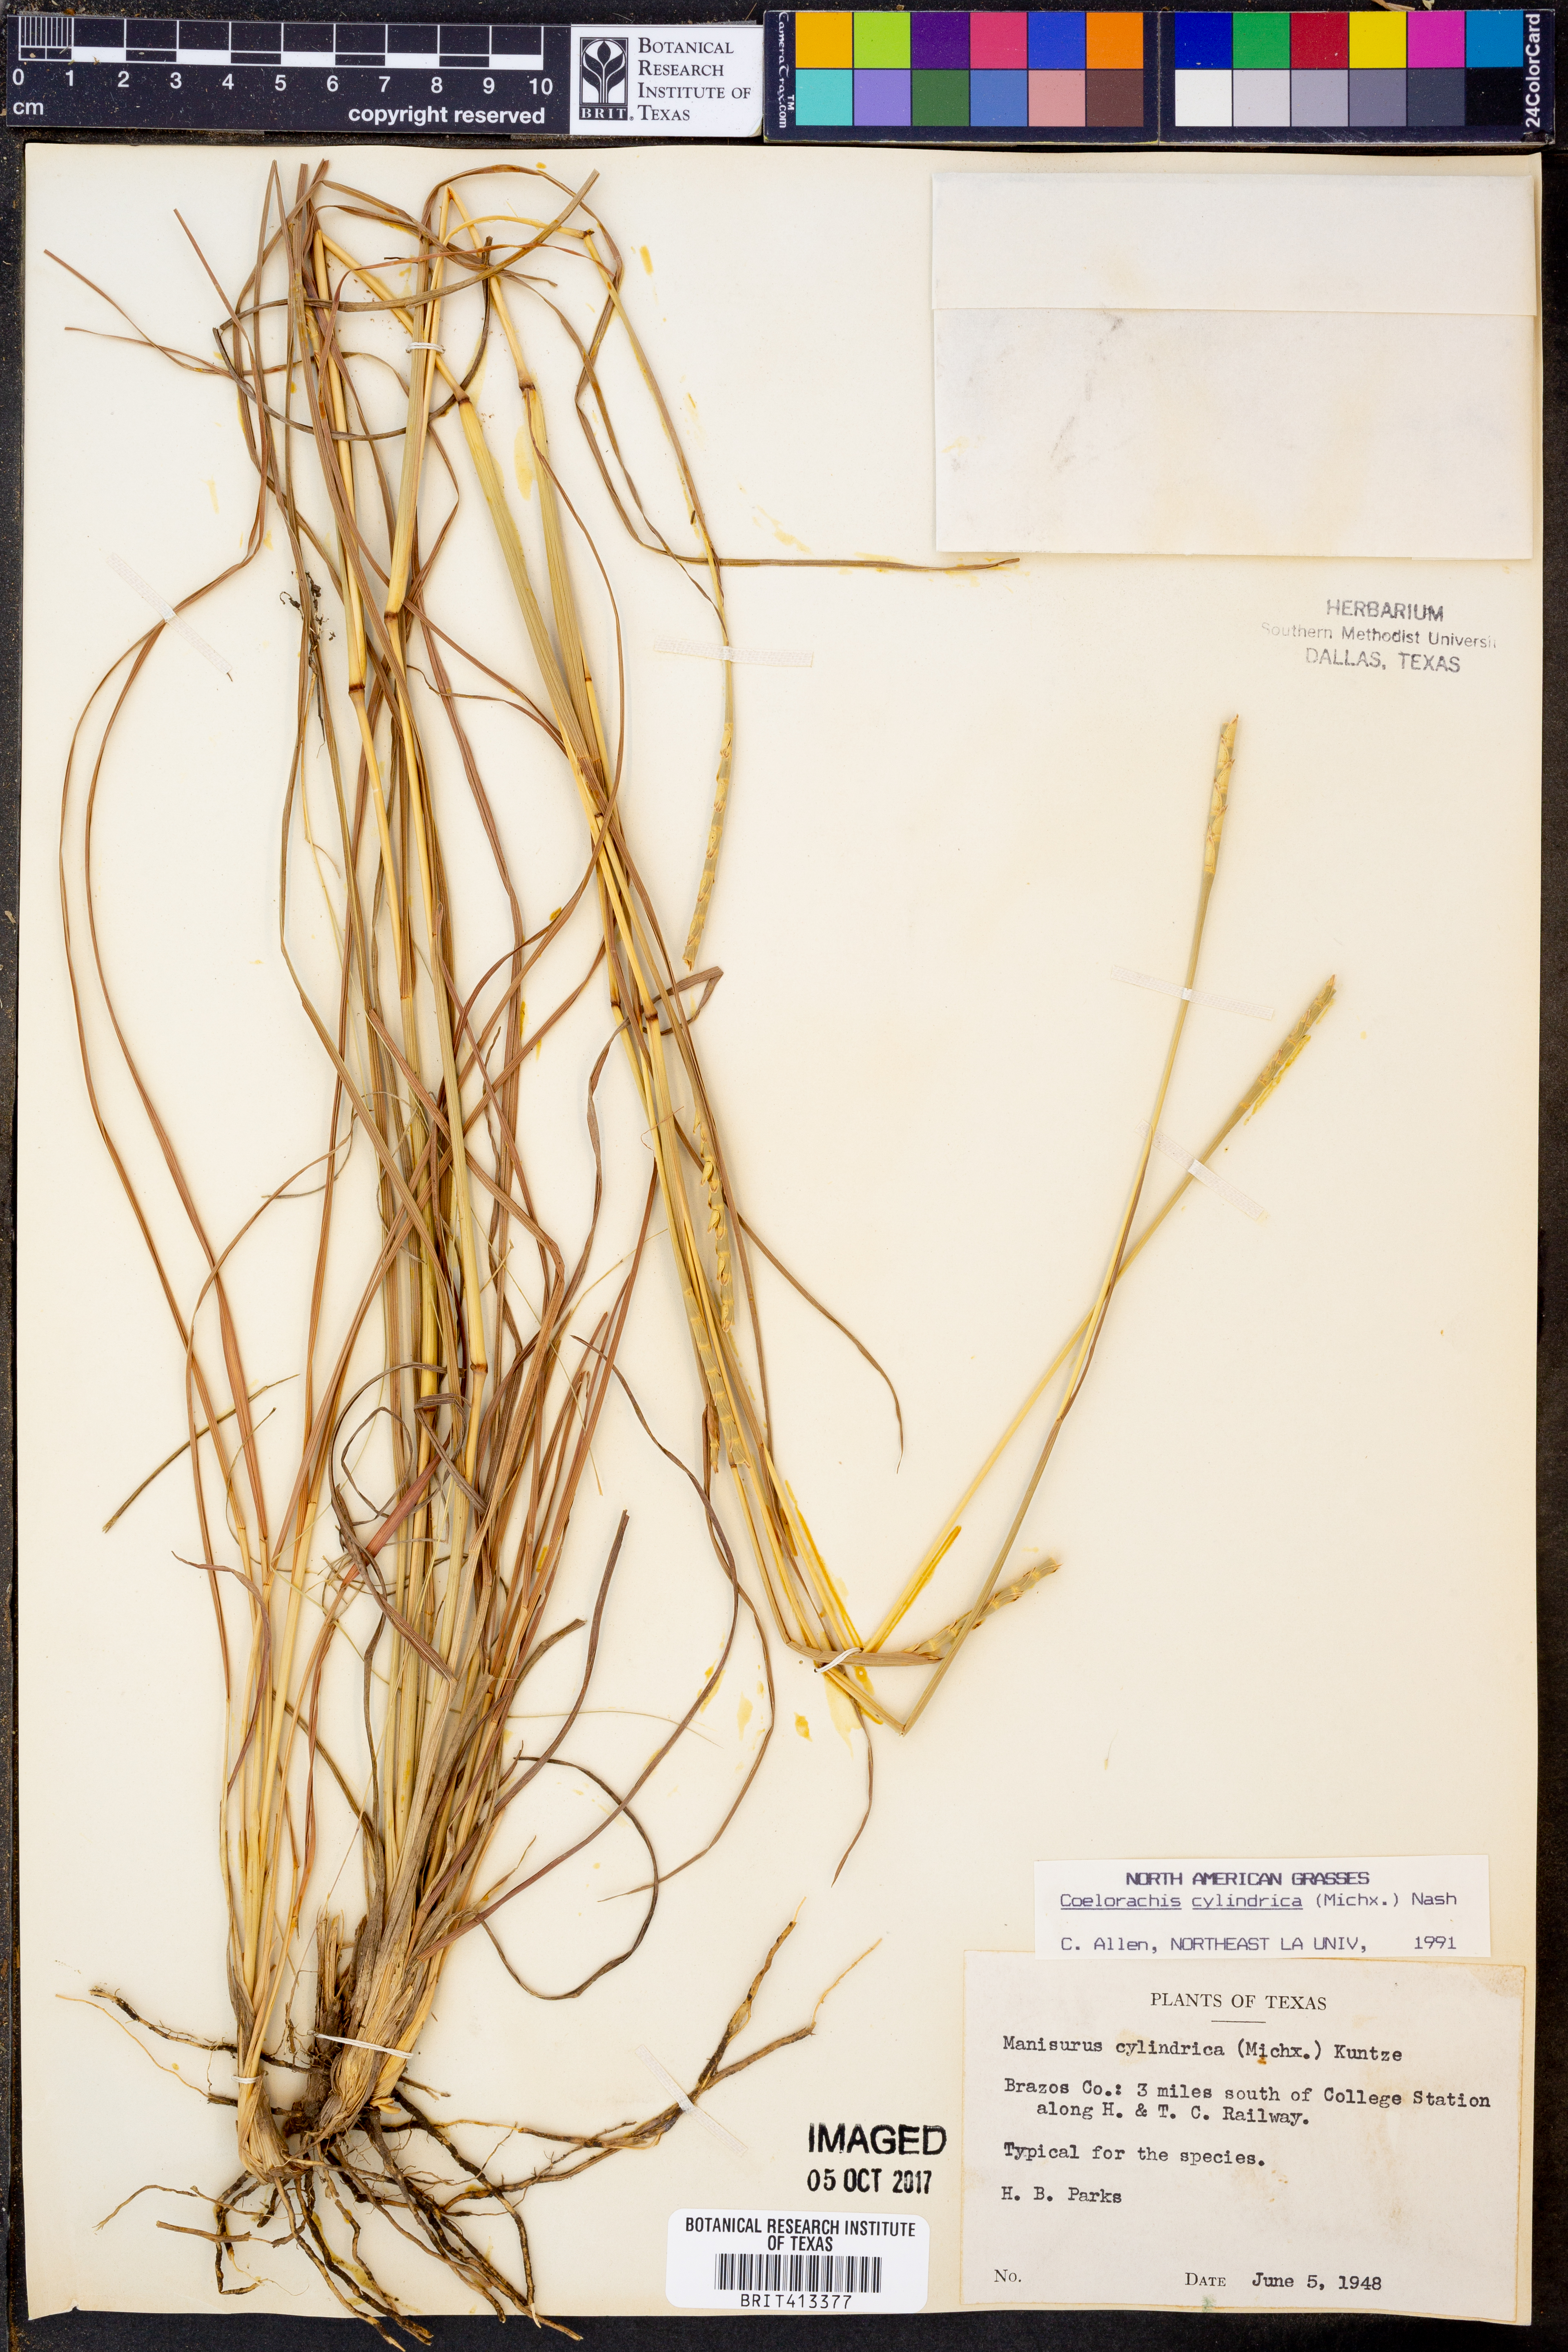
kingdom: Plantae
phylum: Tracheophyta
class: Liliopsida
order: Poales
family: Poaceae
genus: Rottboellia
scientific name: Rottboellia campestris
